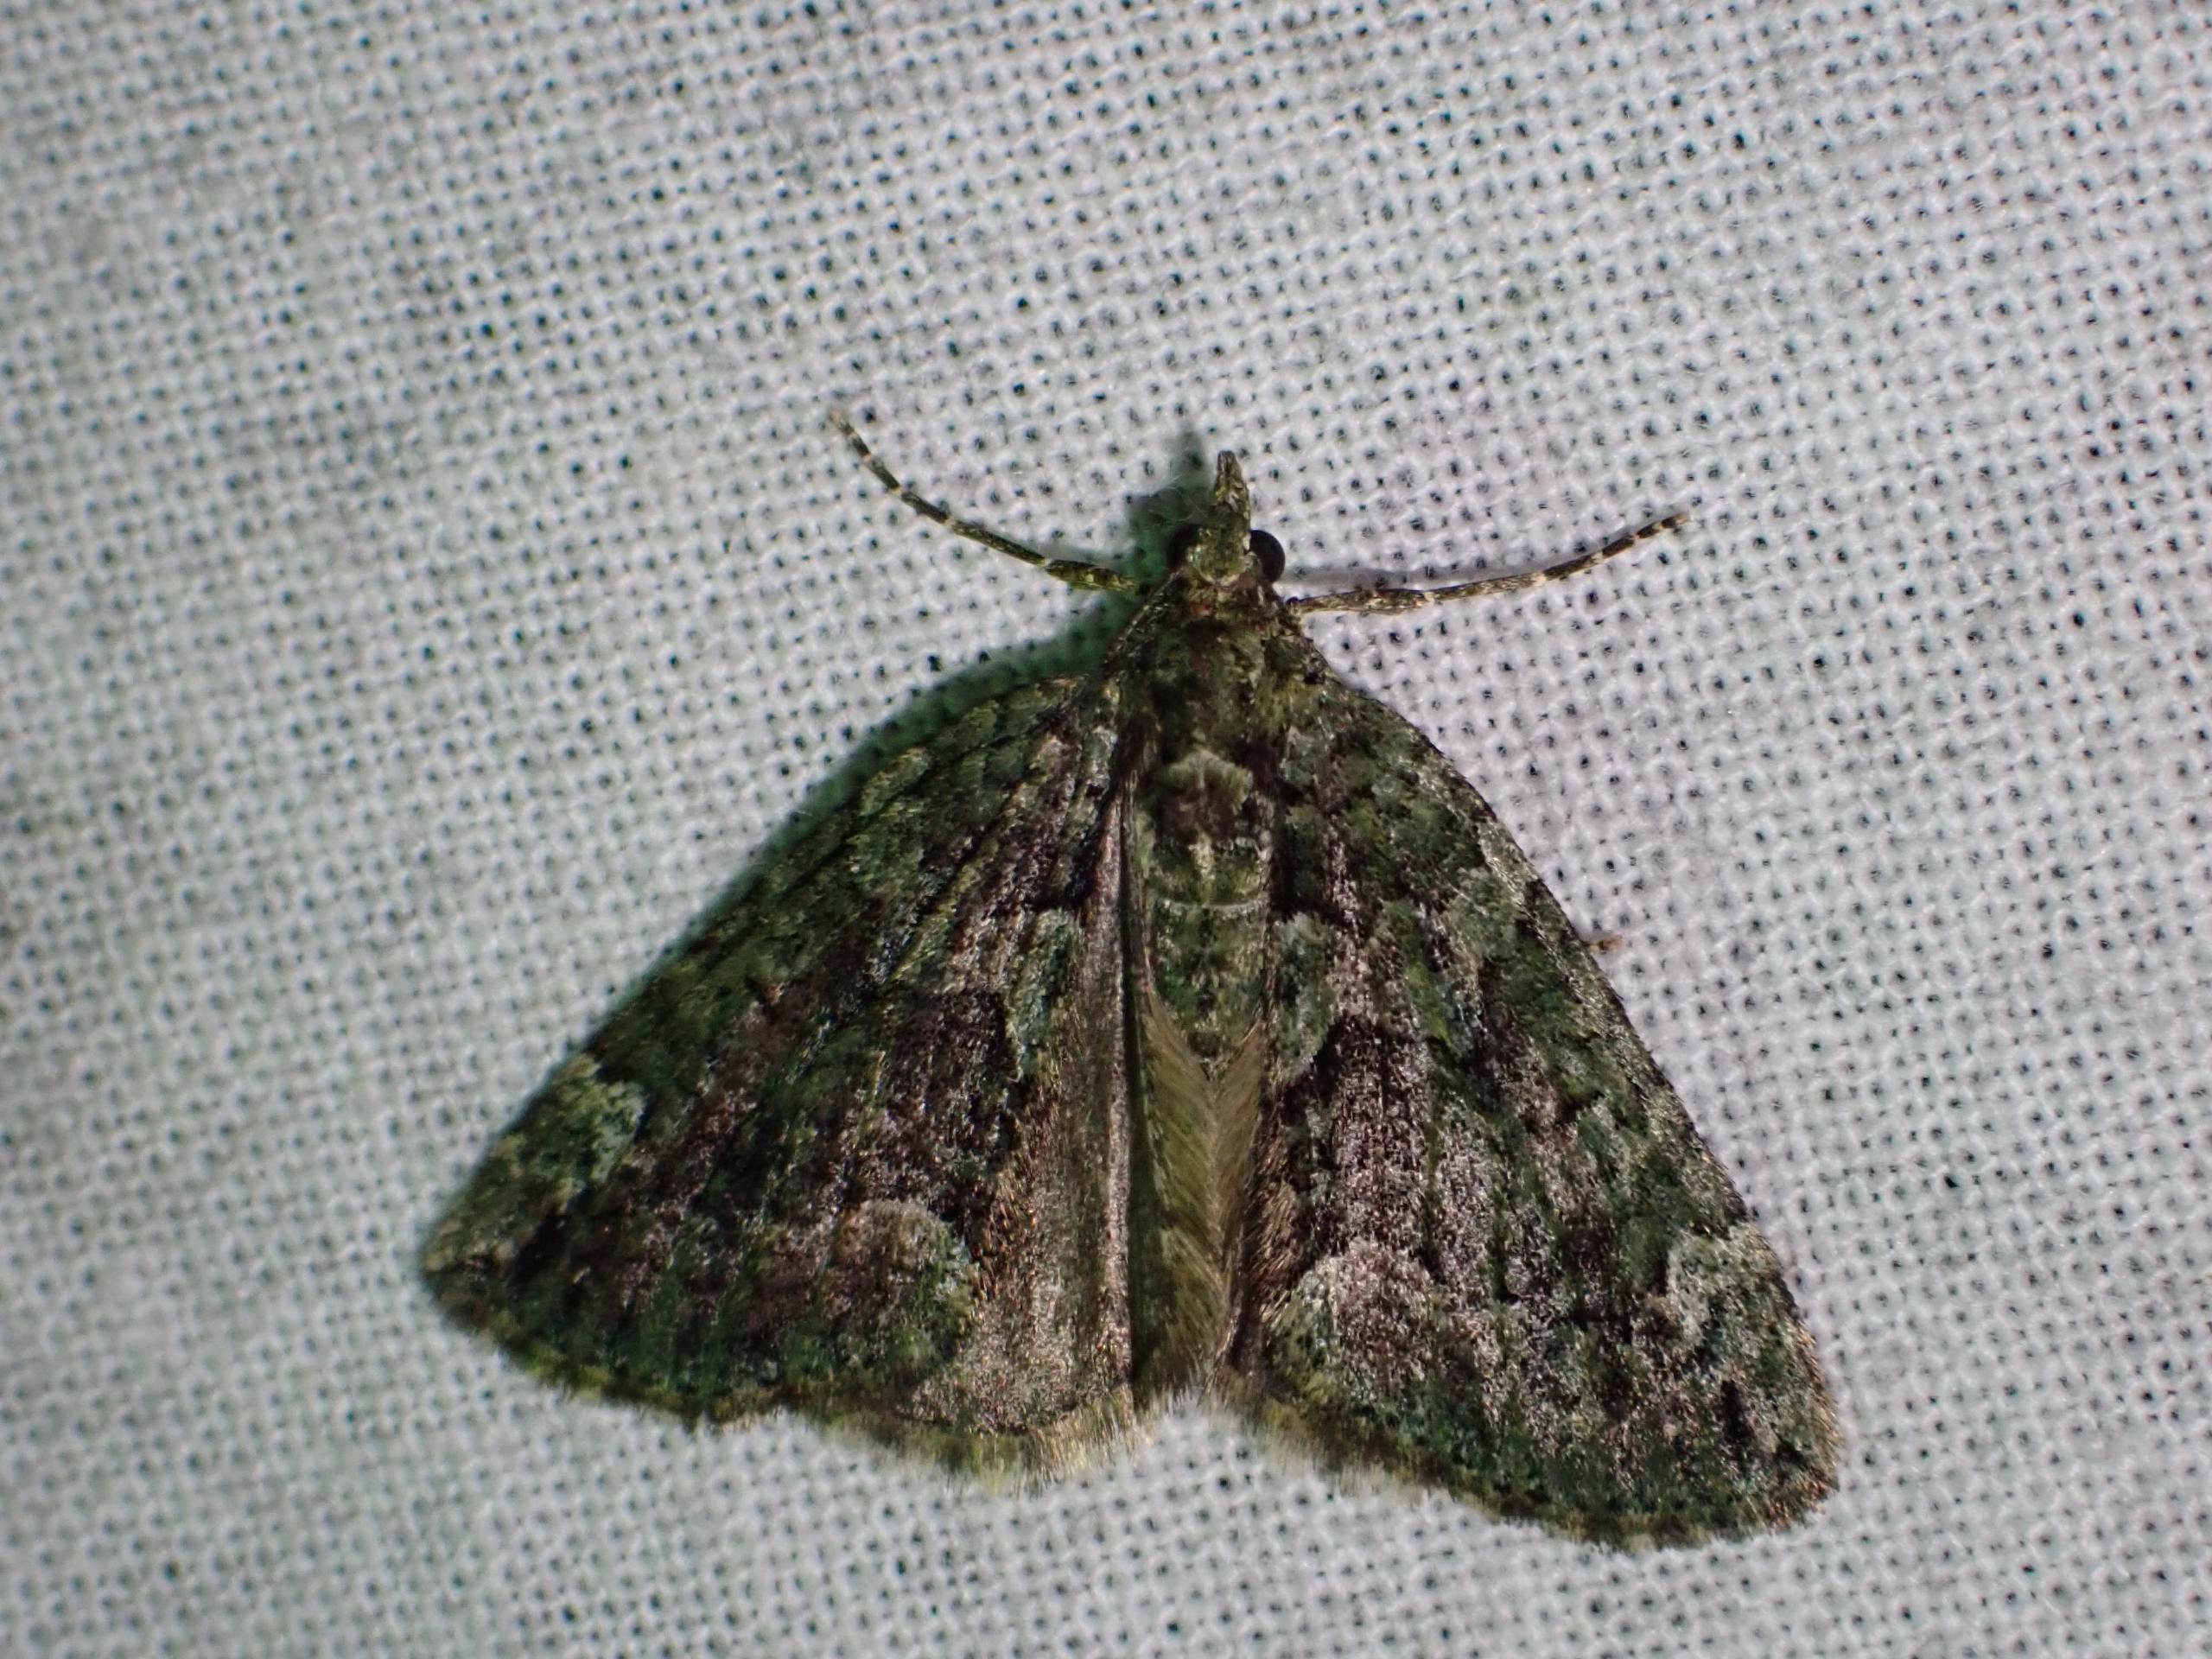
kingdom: Animalia
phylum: Arthropoda
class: Insecta
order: Lepidoptera
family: Geometridae
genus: Chloroclysta
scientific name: Chloroclysta siterata
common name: Brungrøn bladmåler
